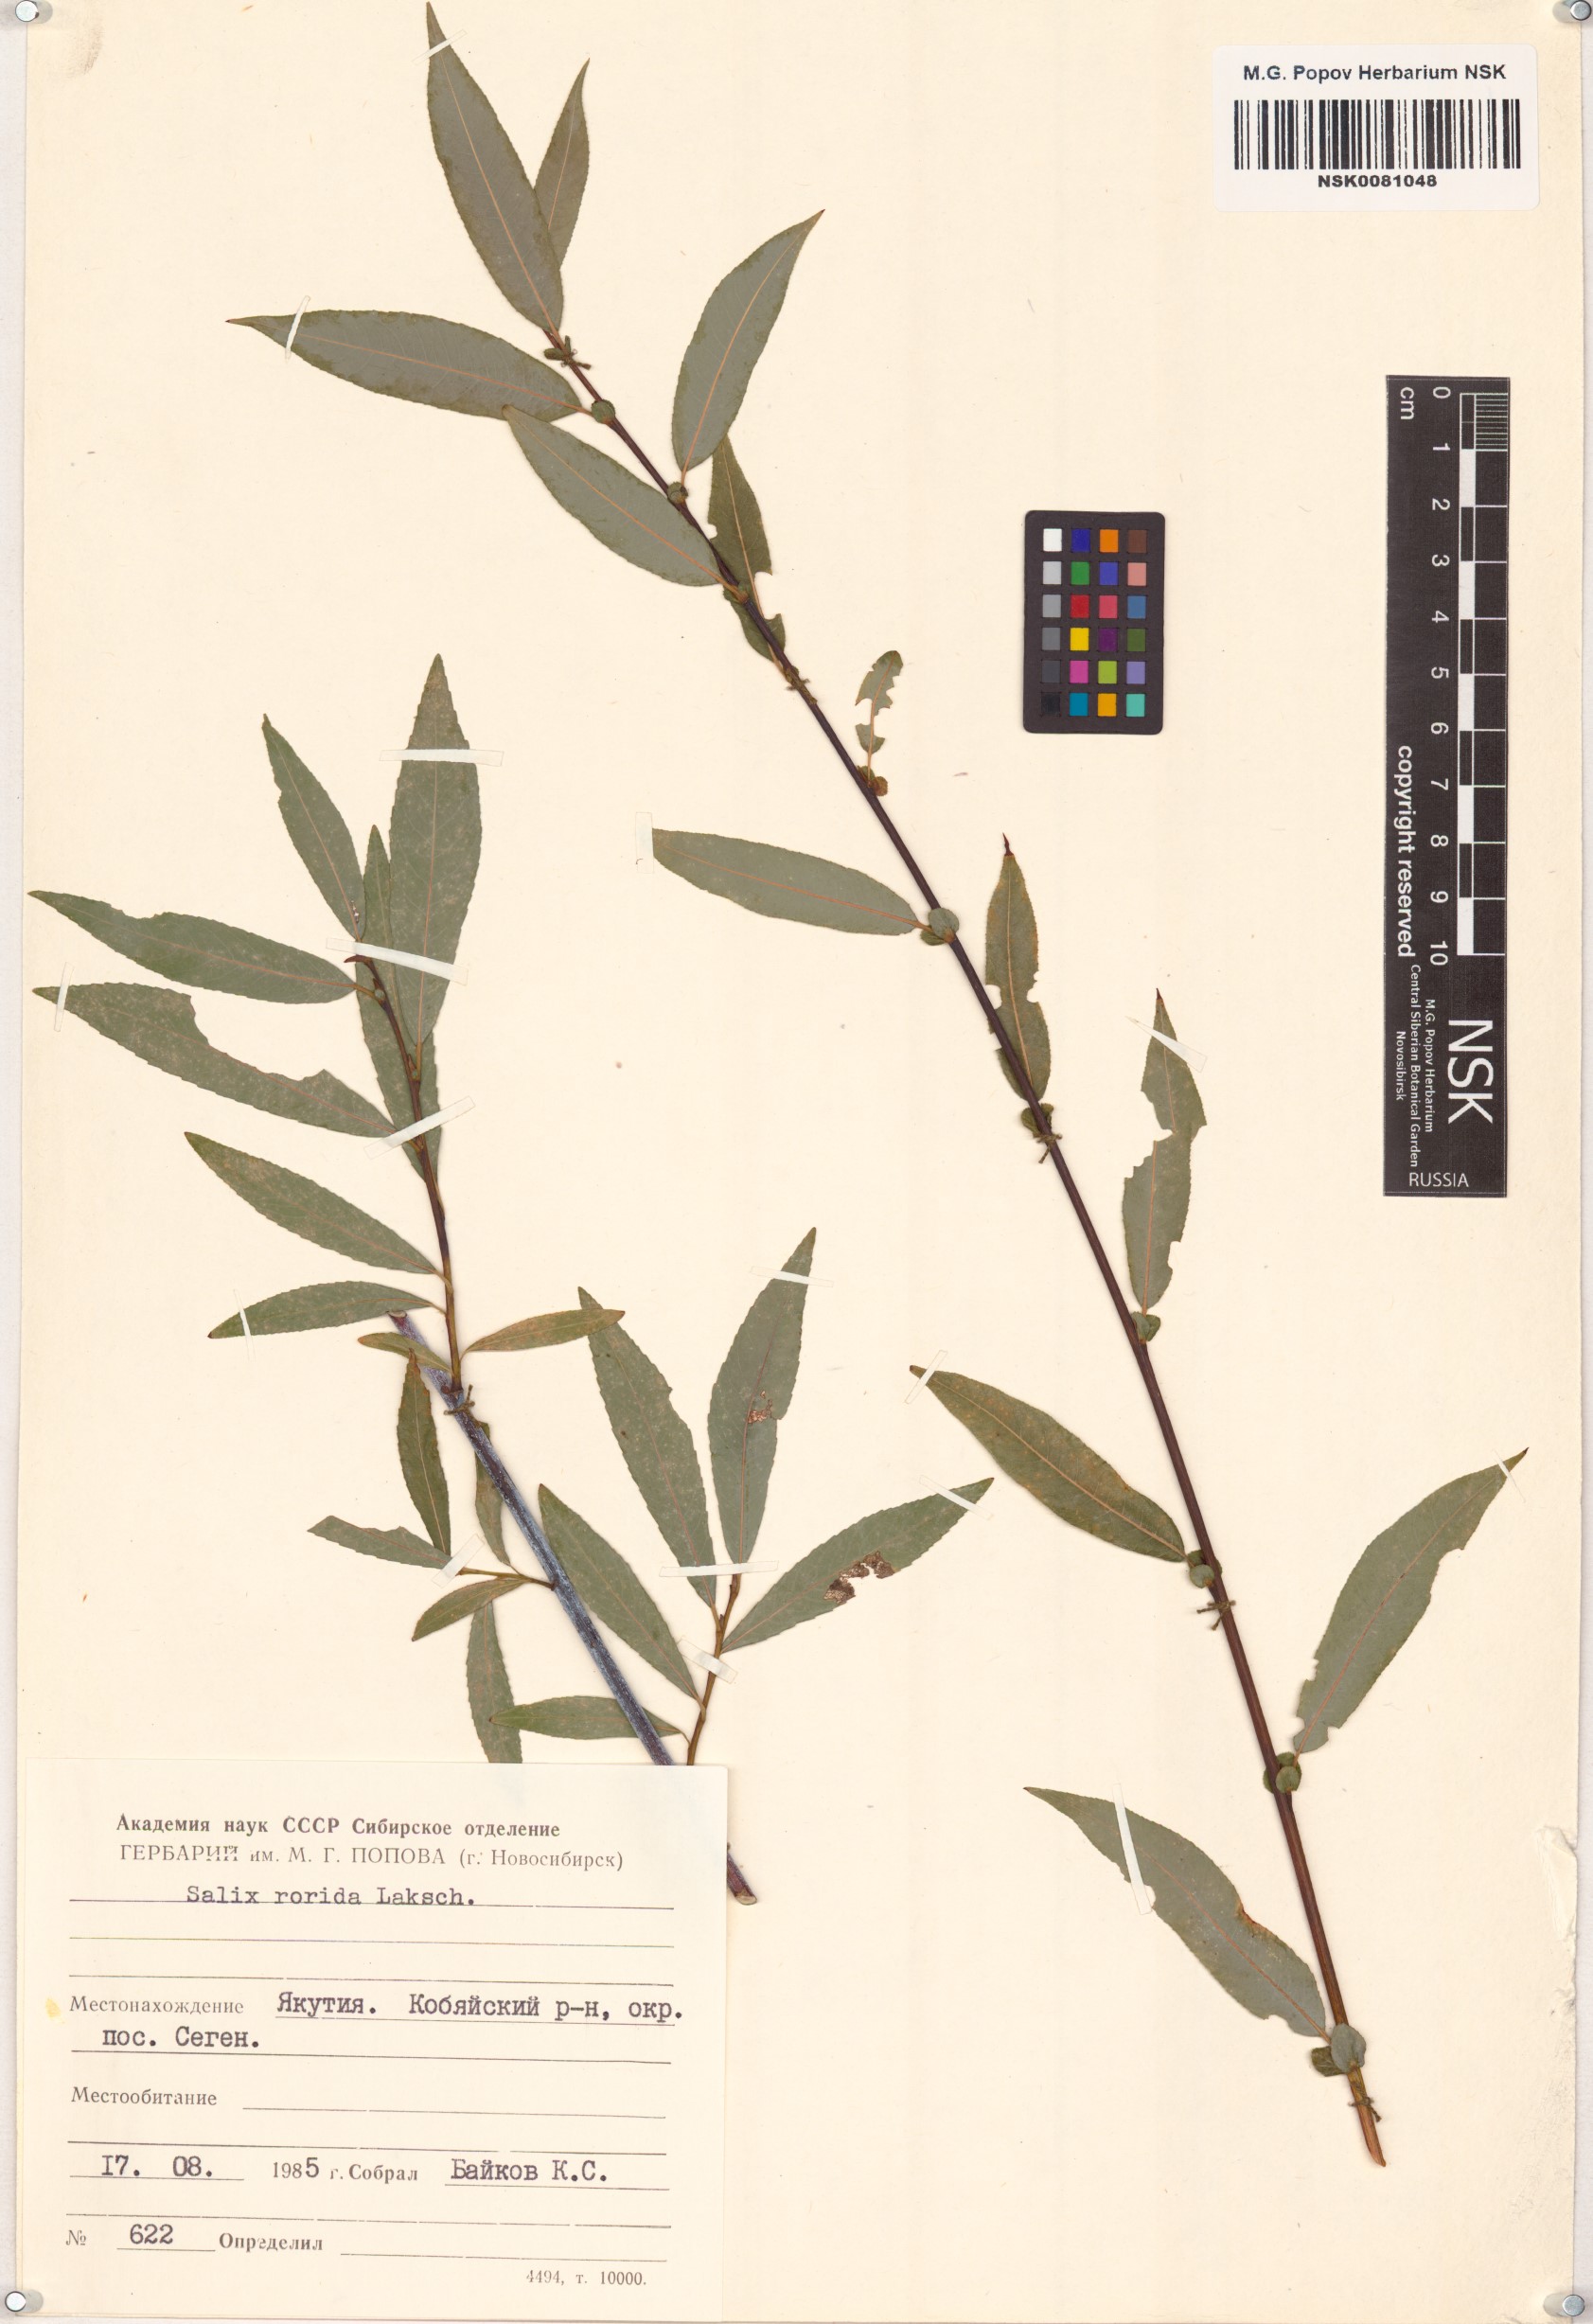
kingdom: Plantae
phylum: Tracheophyta
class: Magnoliopsida
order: Malpighiales
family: Salicaceae
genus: Salix
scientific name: Salix rorida
